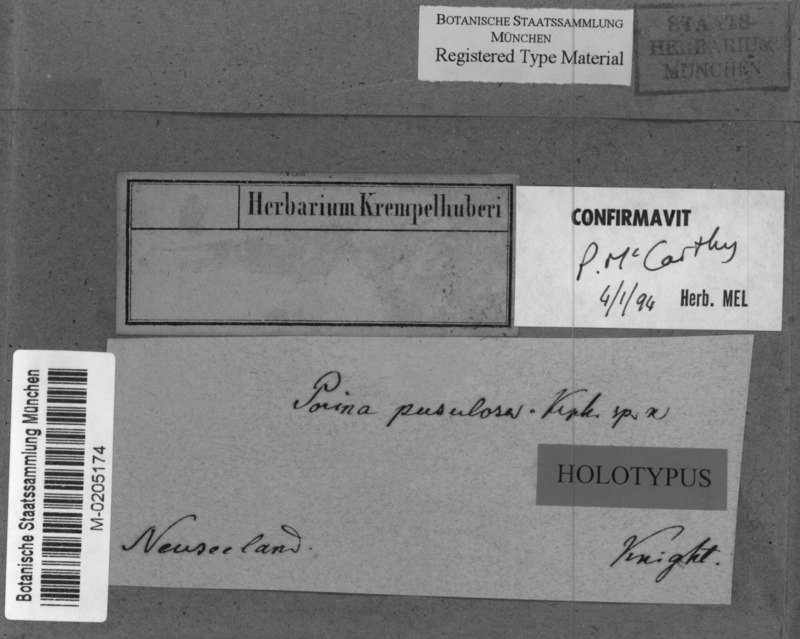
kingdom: Fungi
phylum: Ascomycota
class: Lecanoromycetes
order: Pertusariales
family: Pertusariaceae
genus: Porina
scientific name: Porina exocha
